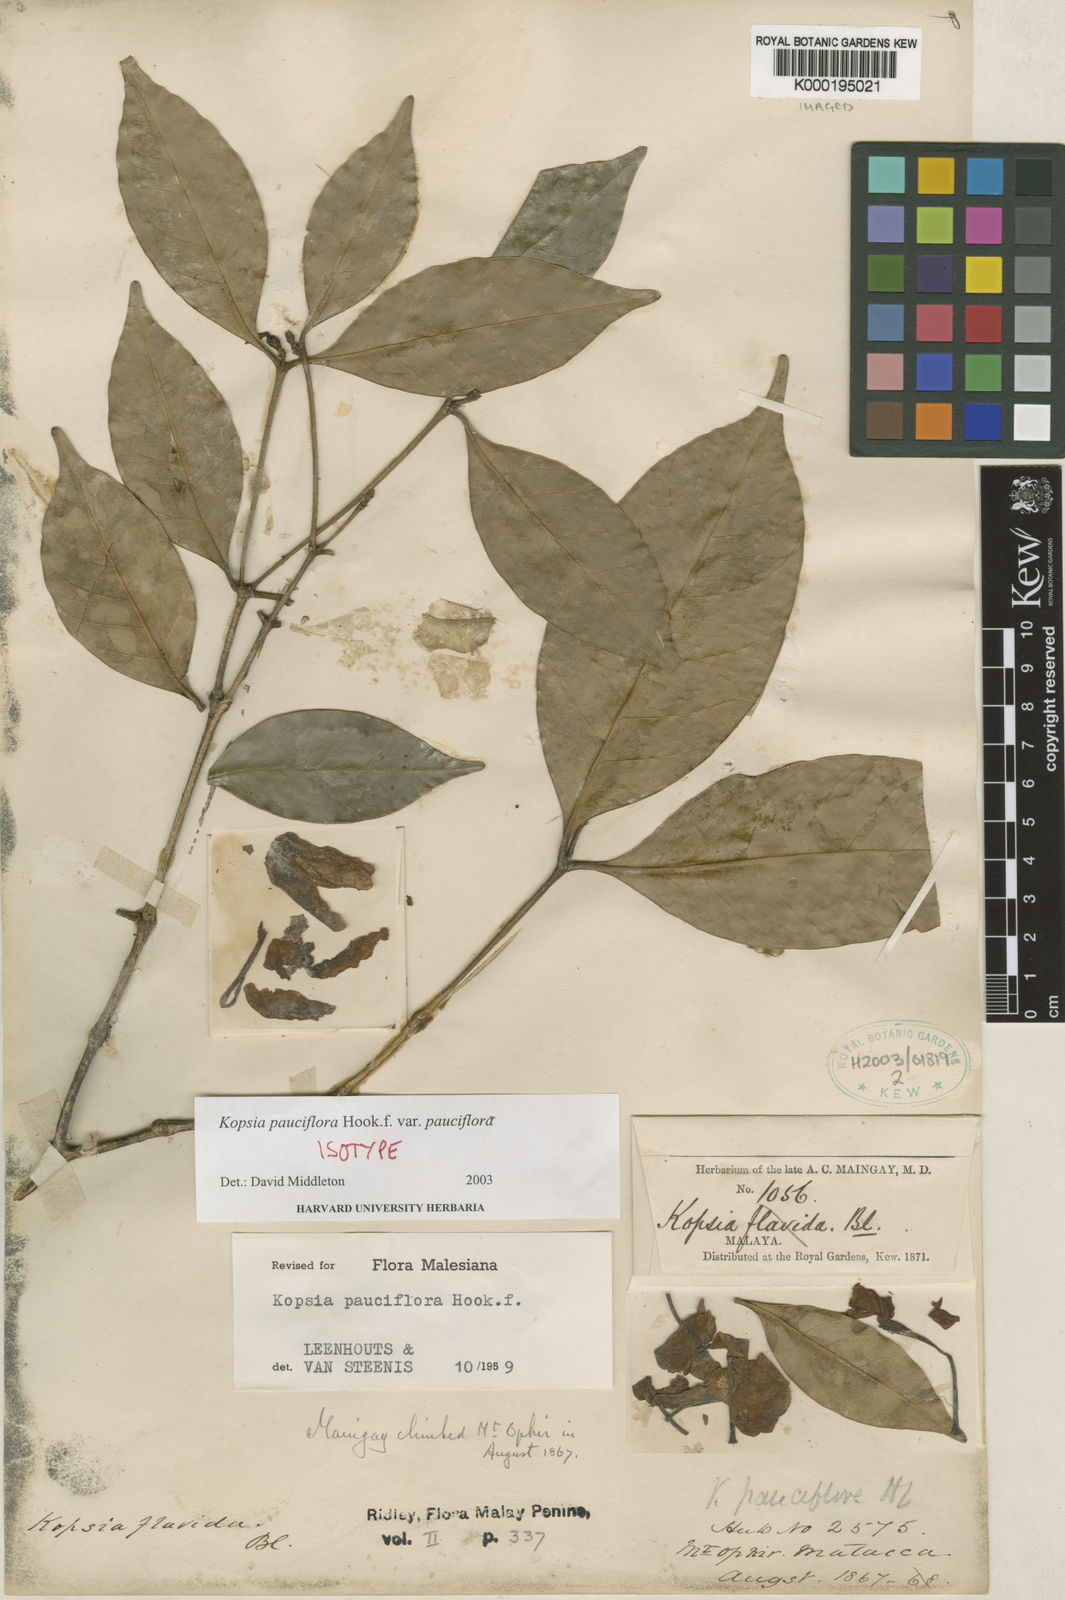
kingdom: Plantae
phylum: Tracheophyta
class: Magnoliopsida
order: Gentianales
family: Apocynaceae
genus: Kopsia
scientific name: Kopsia pauciflora
